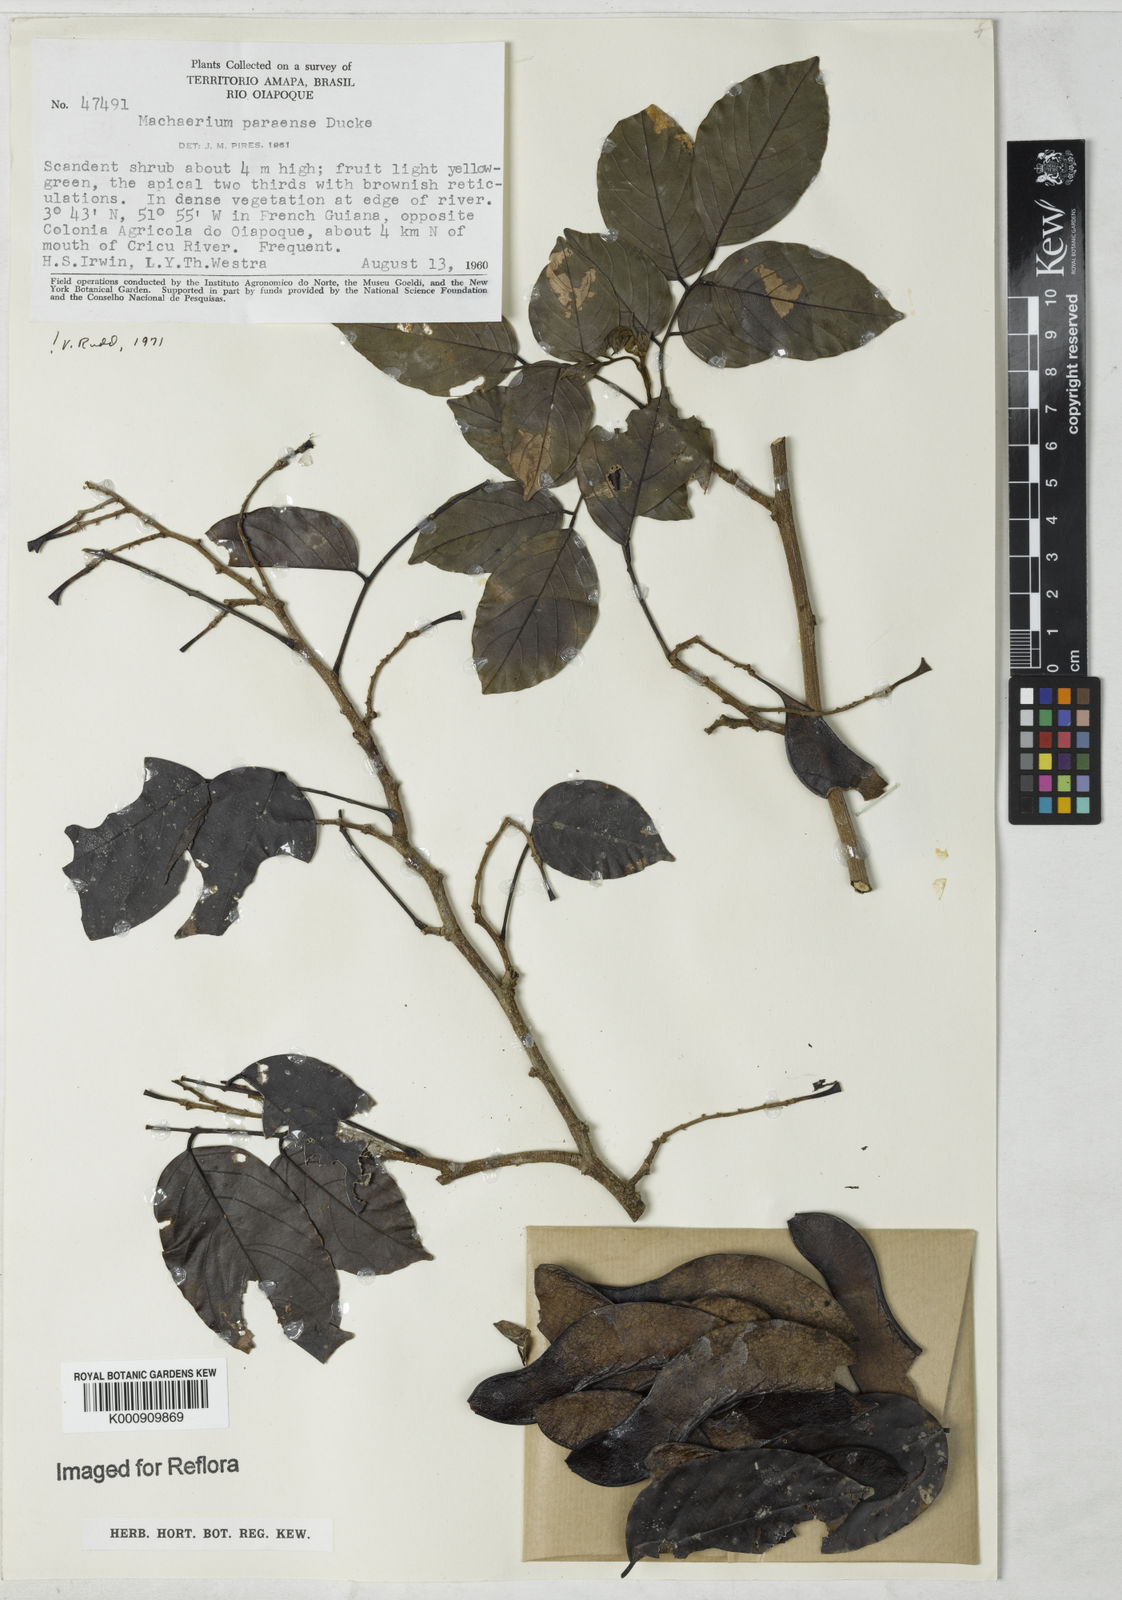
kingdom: Plantae
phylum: Tracheophyta
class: Magnoliopsida
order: Fabales
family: Fabaceae
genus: Machaerium
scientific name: Machaerium paraense
